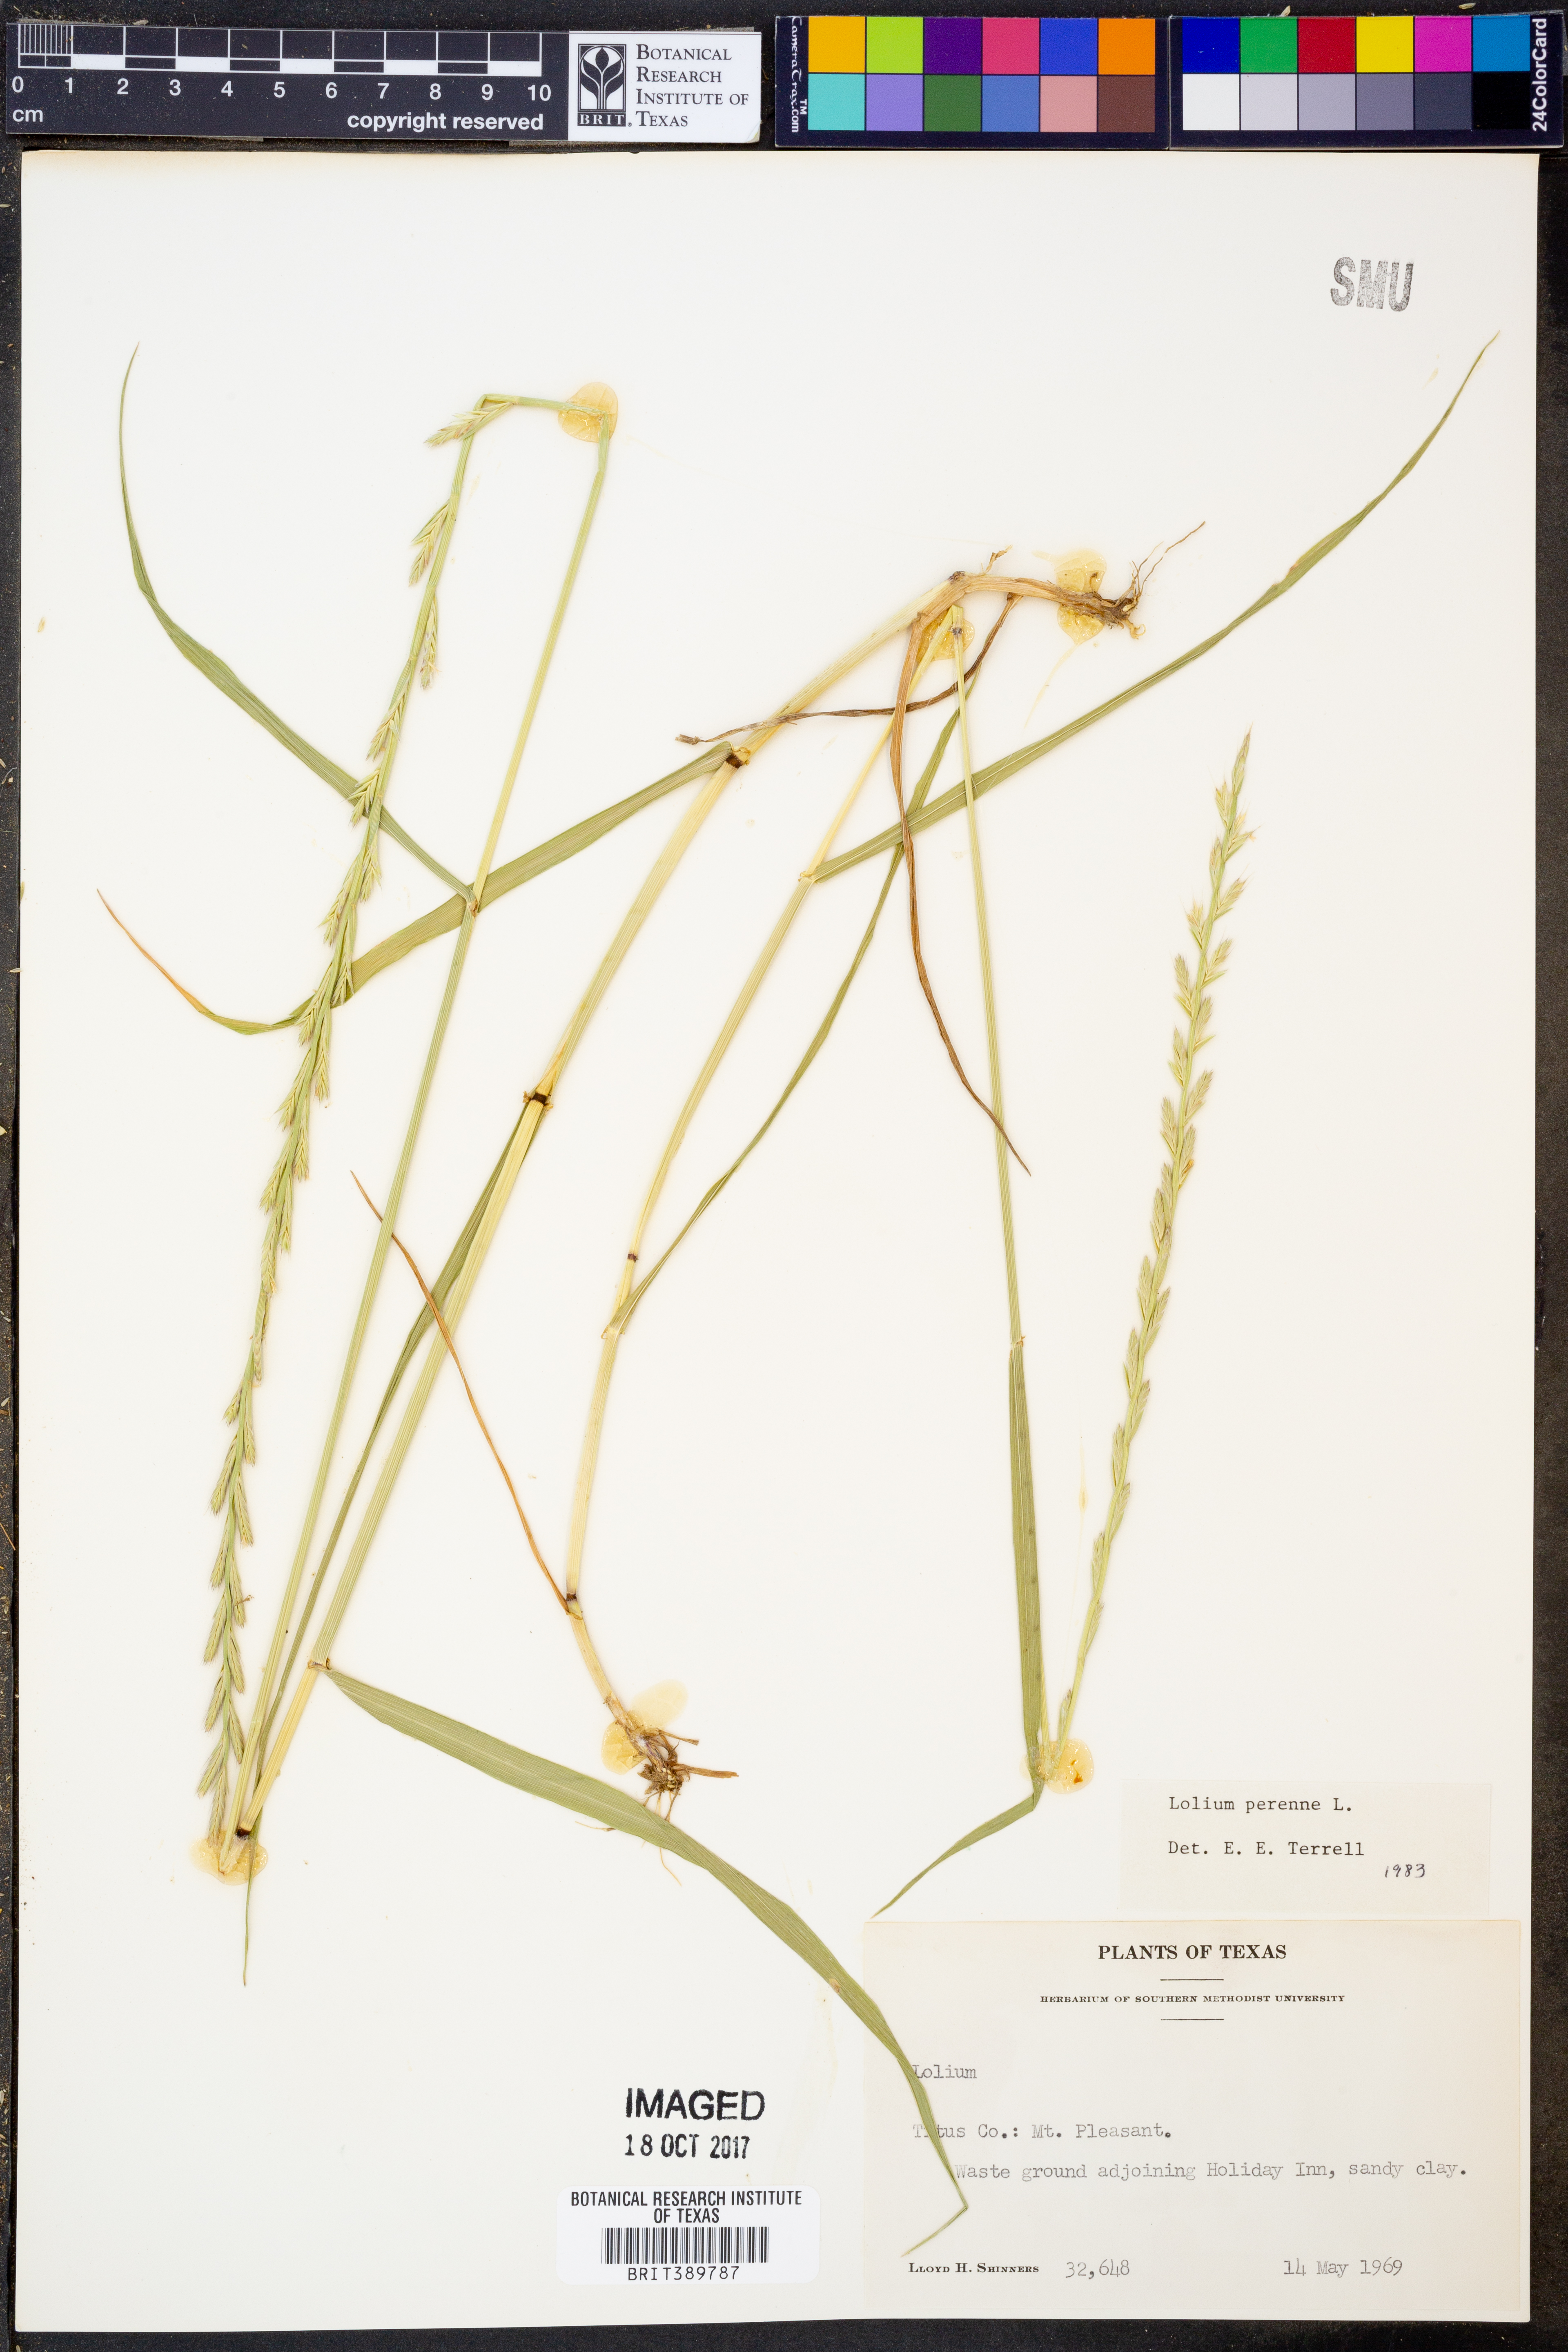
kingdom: Plantae
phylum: Tracheophyta
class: Liliopsida
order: Poales
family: Poaceae
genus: Lolium
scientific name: Lolium perenne
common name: Perennial ryegrass
